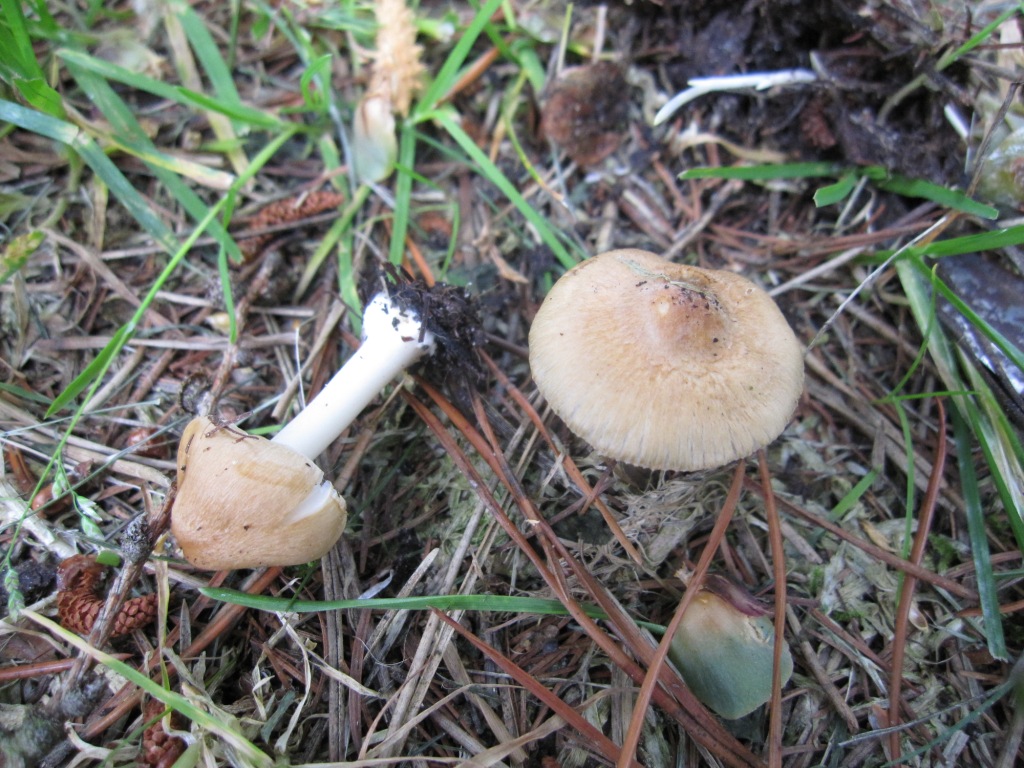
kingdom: Fungi
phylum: Basidiomycota
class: Agaricomycetes
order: Agaricales
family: Inocybaceae
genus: Inocybe
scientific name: Inocybe mixtilis
